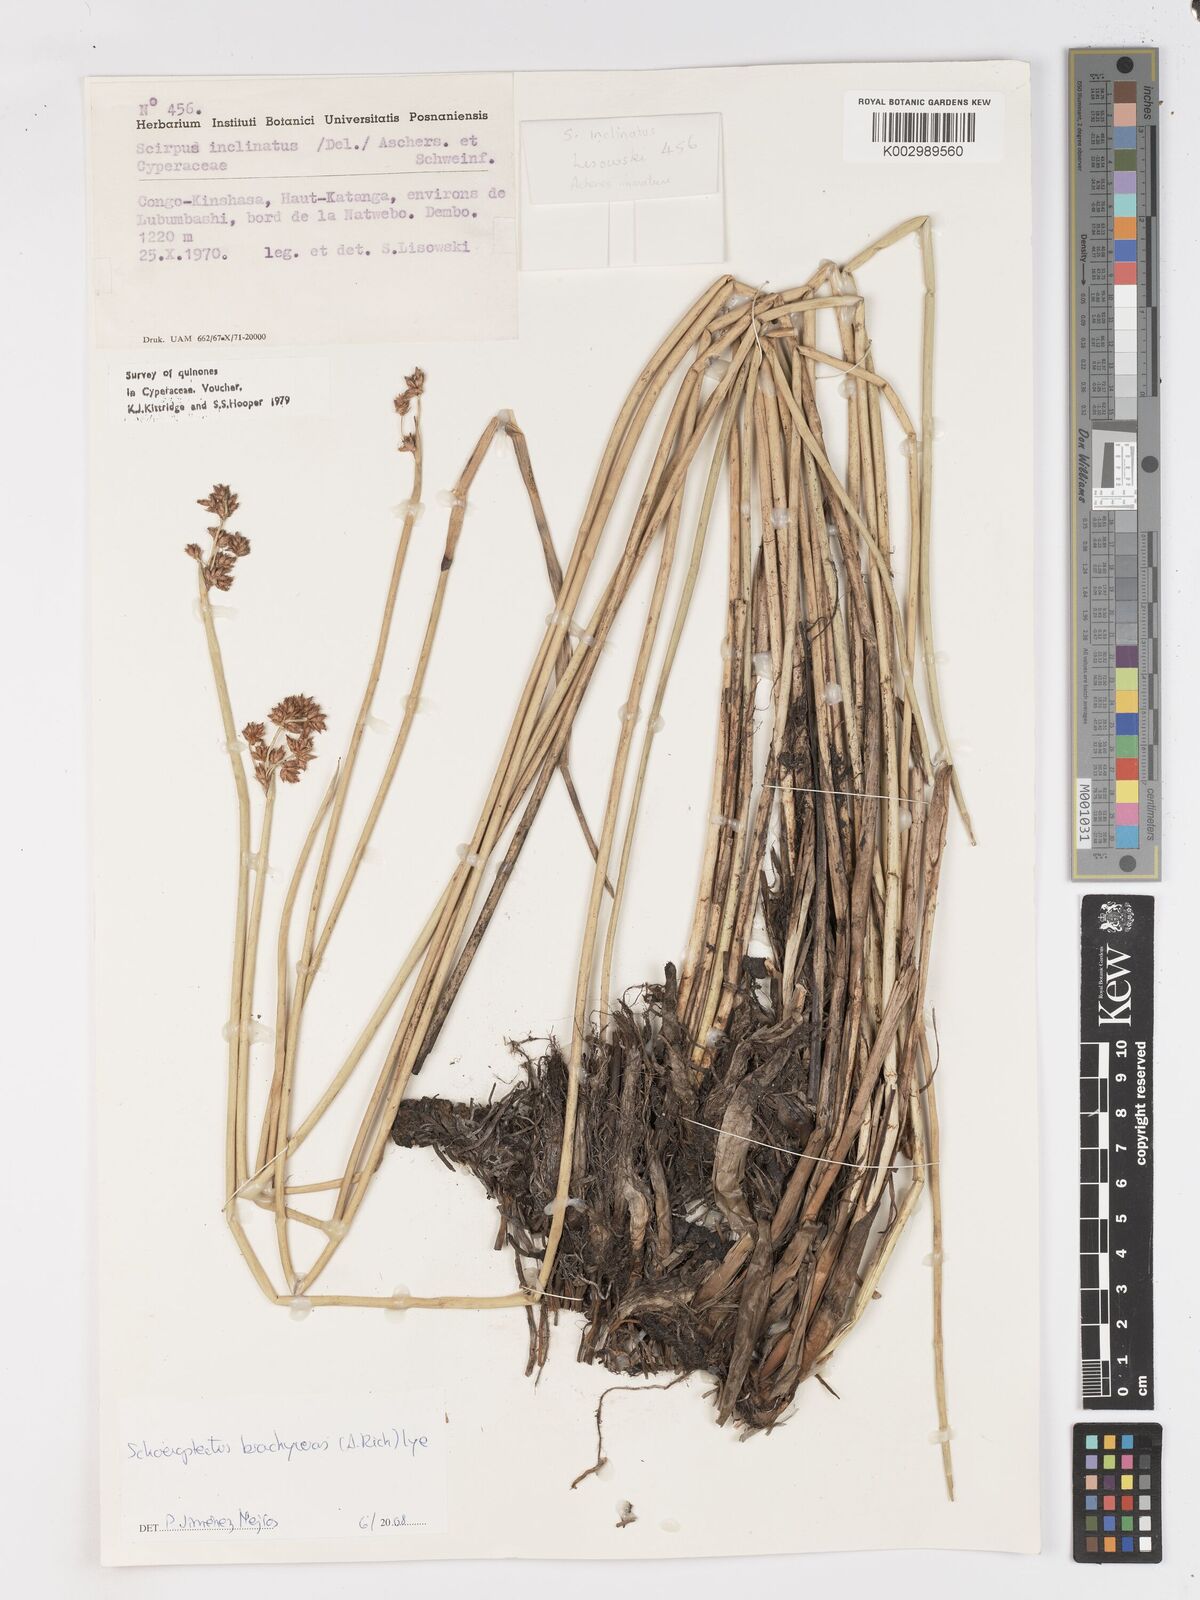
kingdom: Plantae
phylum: Tracheophyta
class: Liliopsida
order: Poales
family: Cyperaceae
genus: Schoenoplectiella
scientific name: Schoenoplectiella corymbosa
